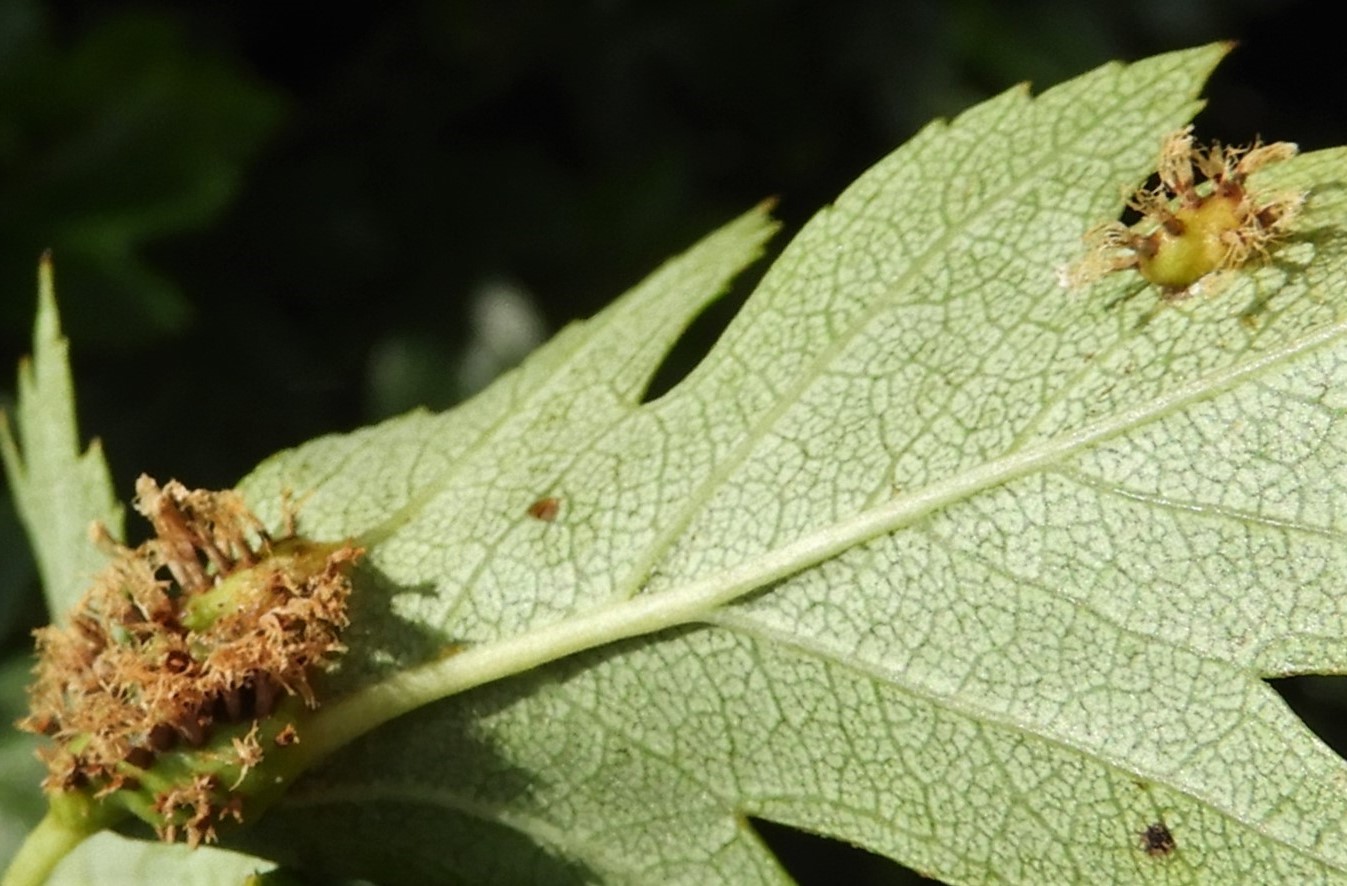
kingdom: Fungi
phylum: Basidiomycota
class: Pucciniomycetes
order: Pucciniales
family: Gymnosporangiaceae
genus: Gymnosporangium
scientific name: Gymnosporangium
